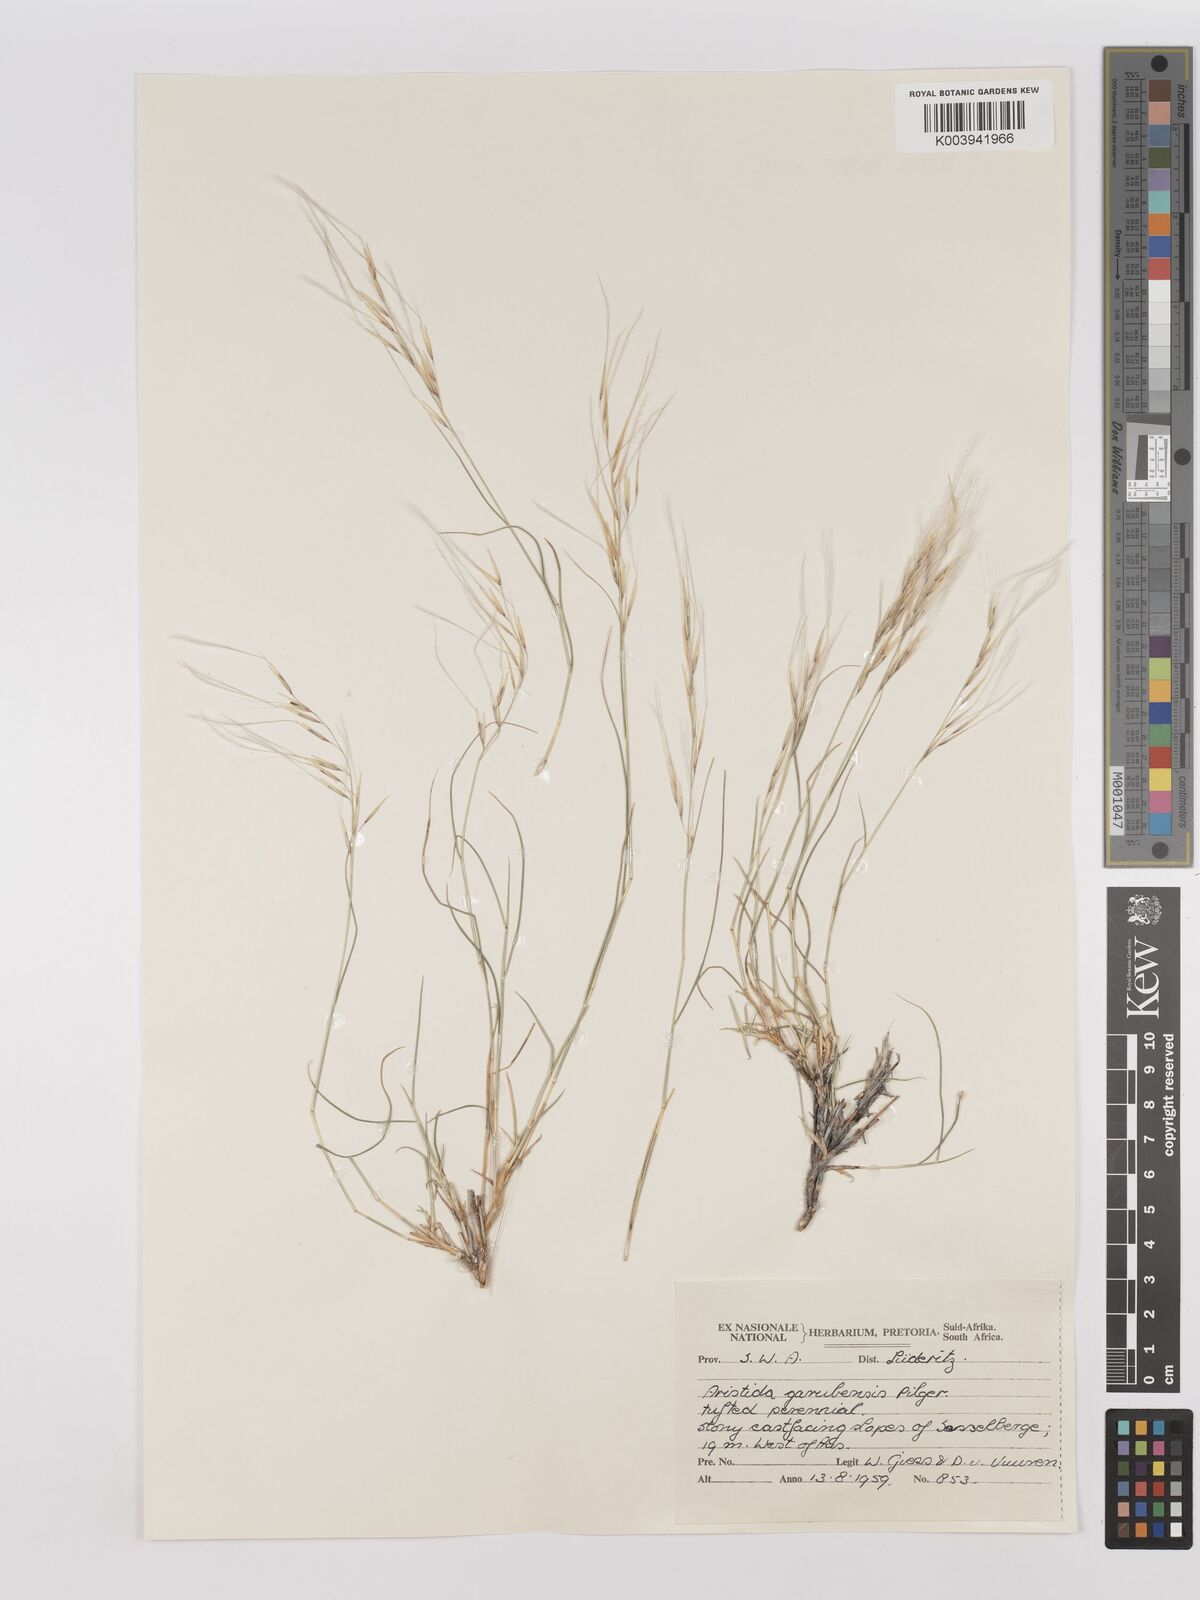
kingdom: Plantae
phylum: Tracheophyta
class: Liliopsida
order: Poales
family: Poaceae
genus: Stipagrostis
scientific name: Stipagrostis garubensis
